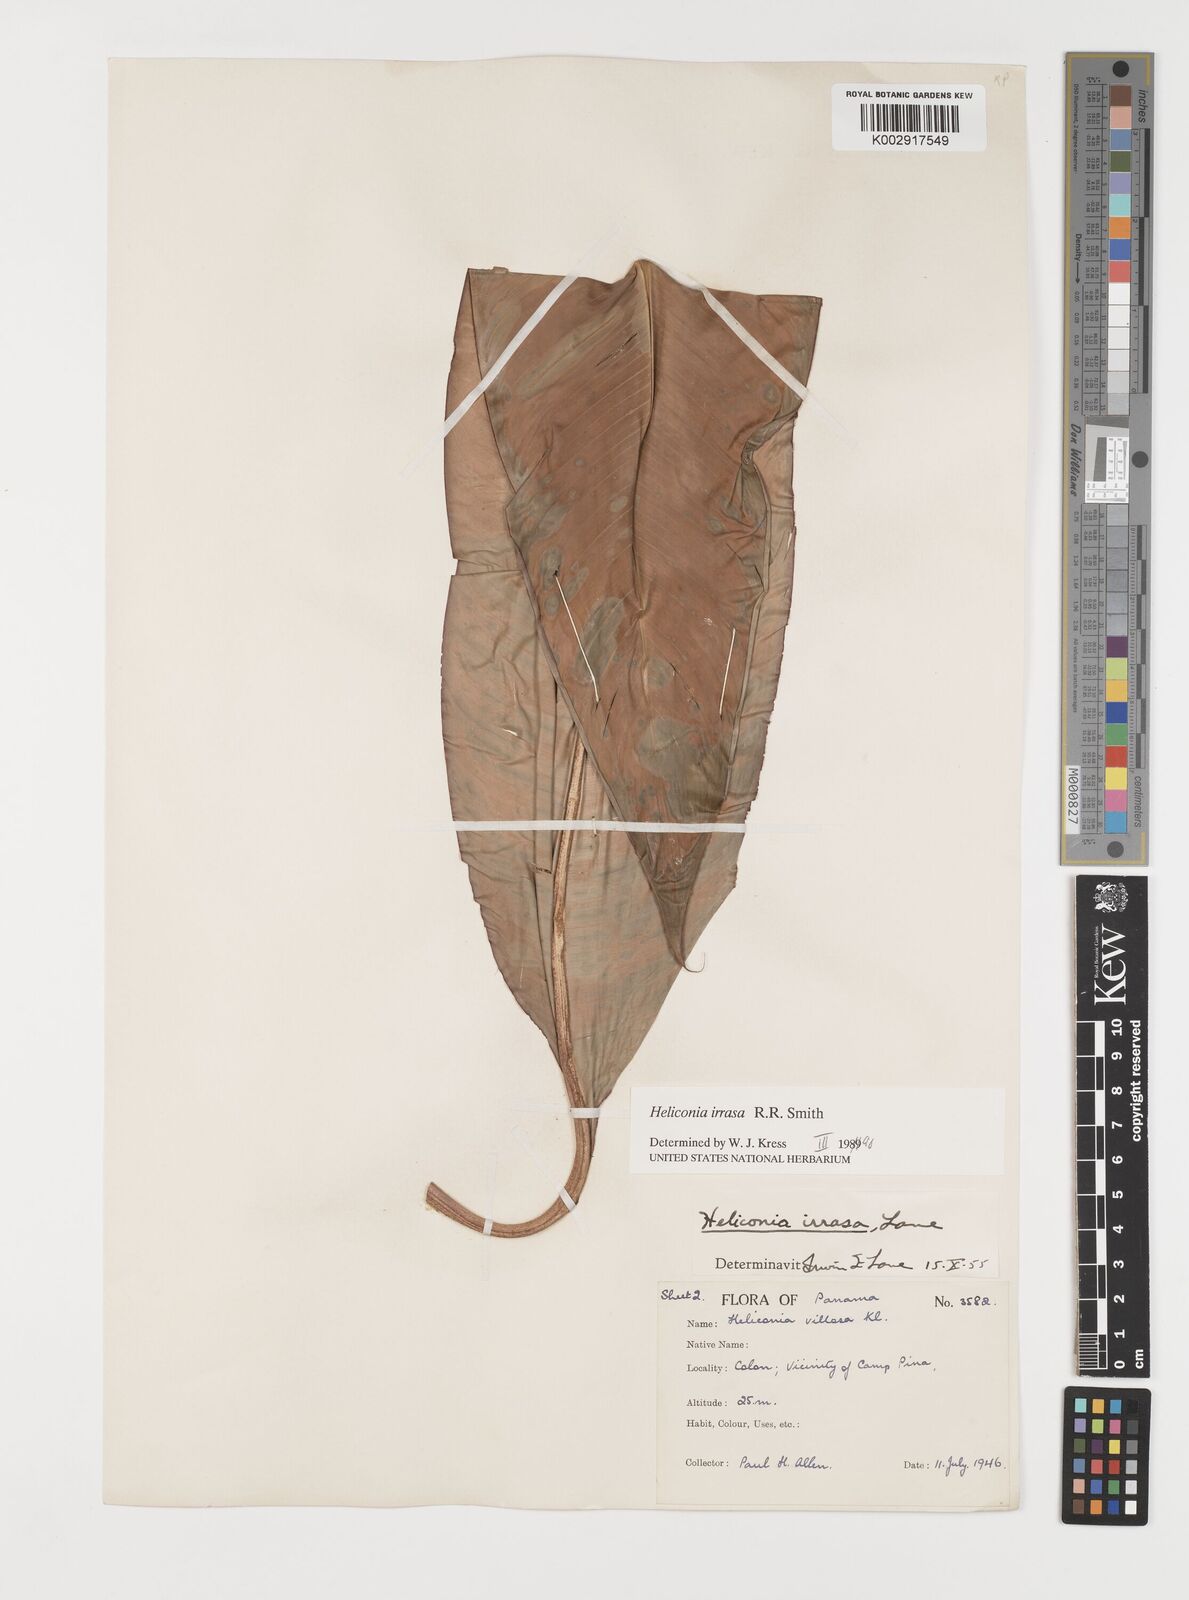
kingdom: Plantae
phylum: Tracheophyta
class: Liliopsida
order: Zingiberales
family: Heliconiaceae
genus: Heliconia
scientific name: Heliconia irrasa
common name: Wild plantain
